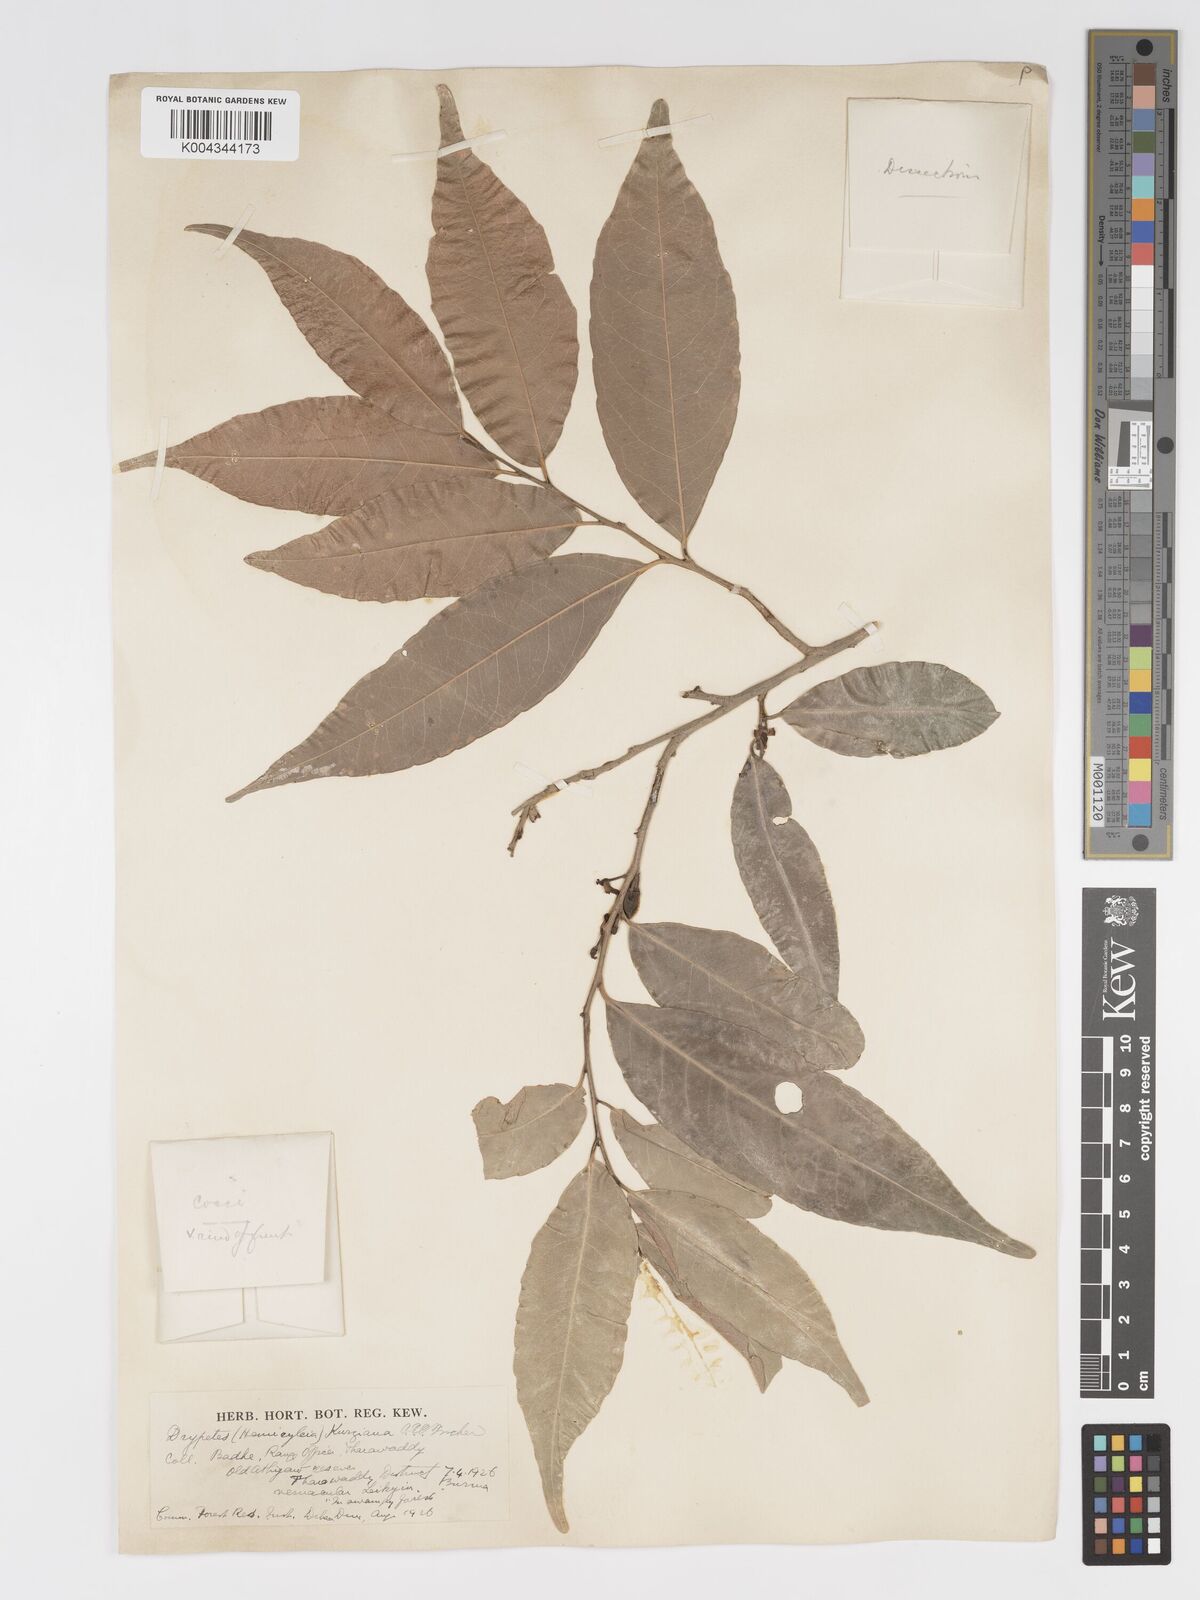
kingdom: Plantae
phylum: Tracheophyta
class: Magnoliopsida
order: Malpighiales
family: Putranjivaceae
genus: Drypetes
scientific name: Drypetes sumatrana
